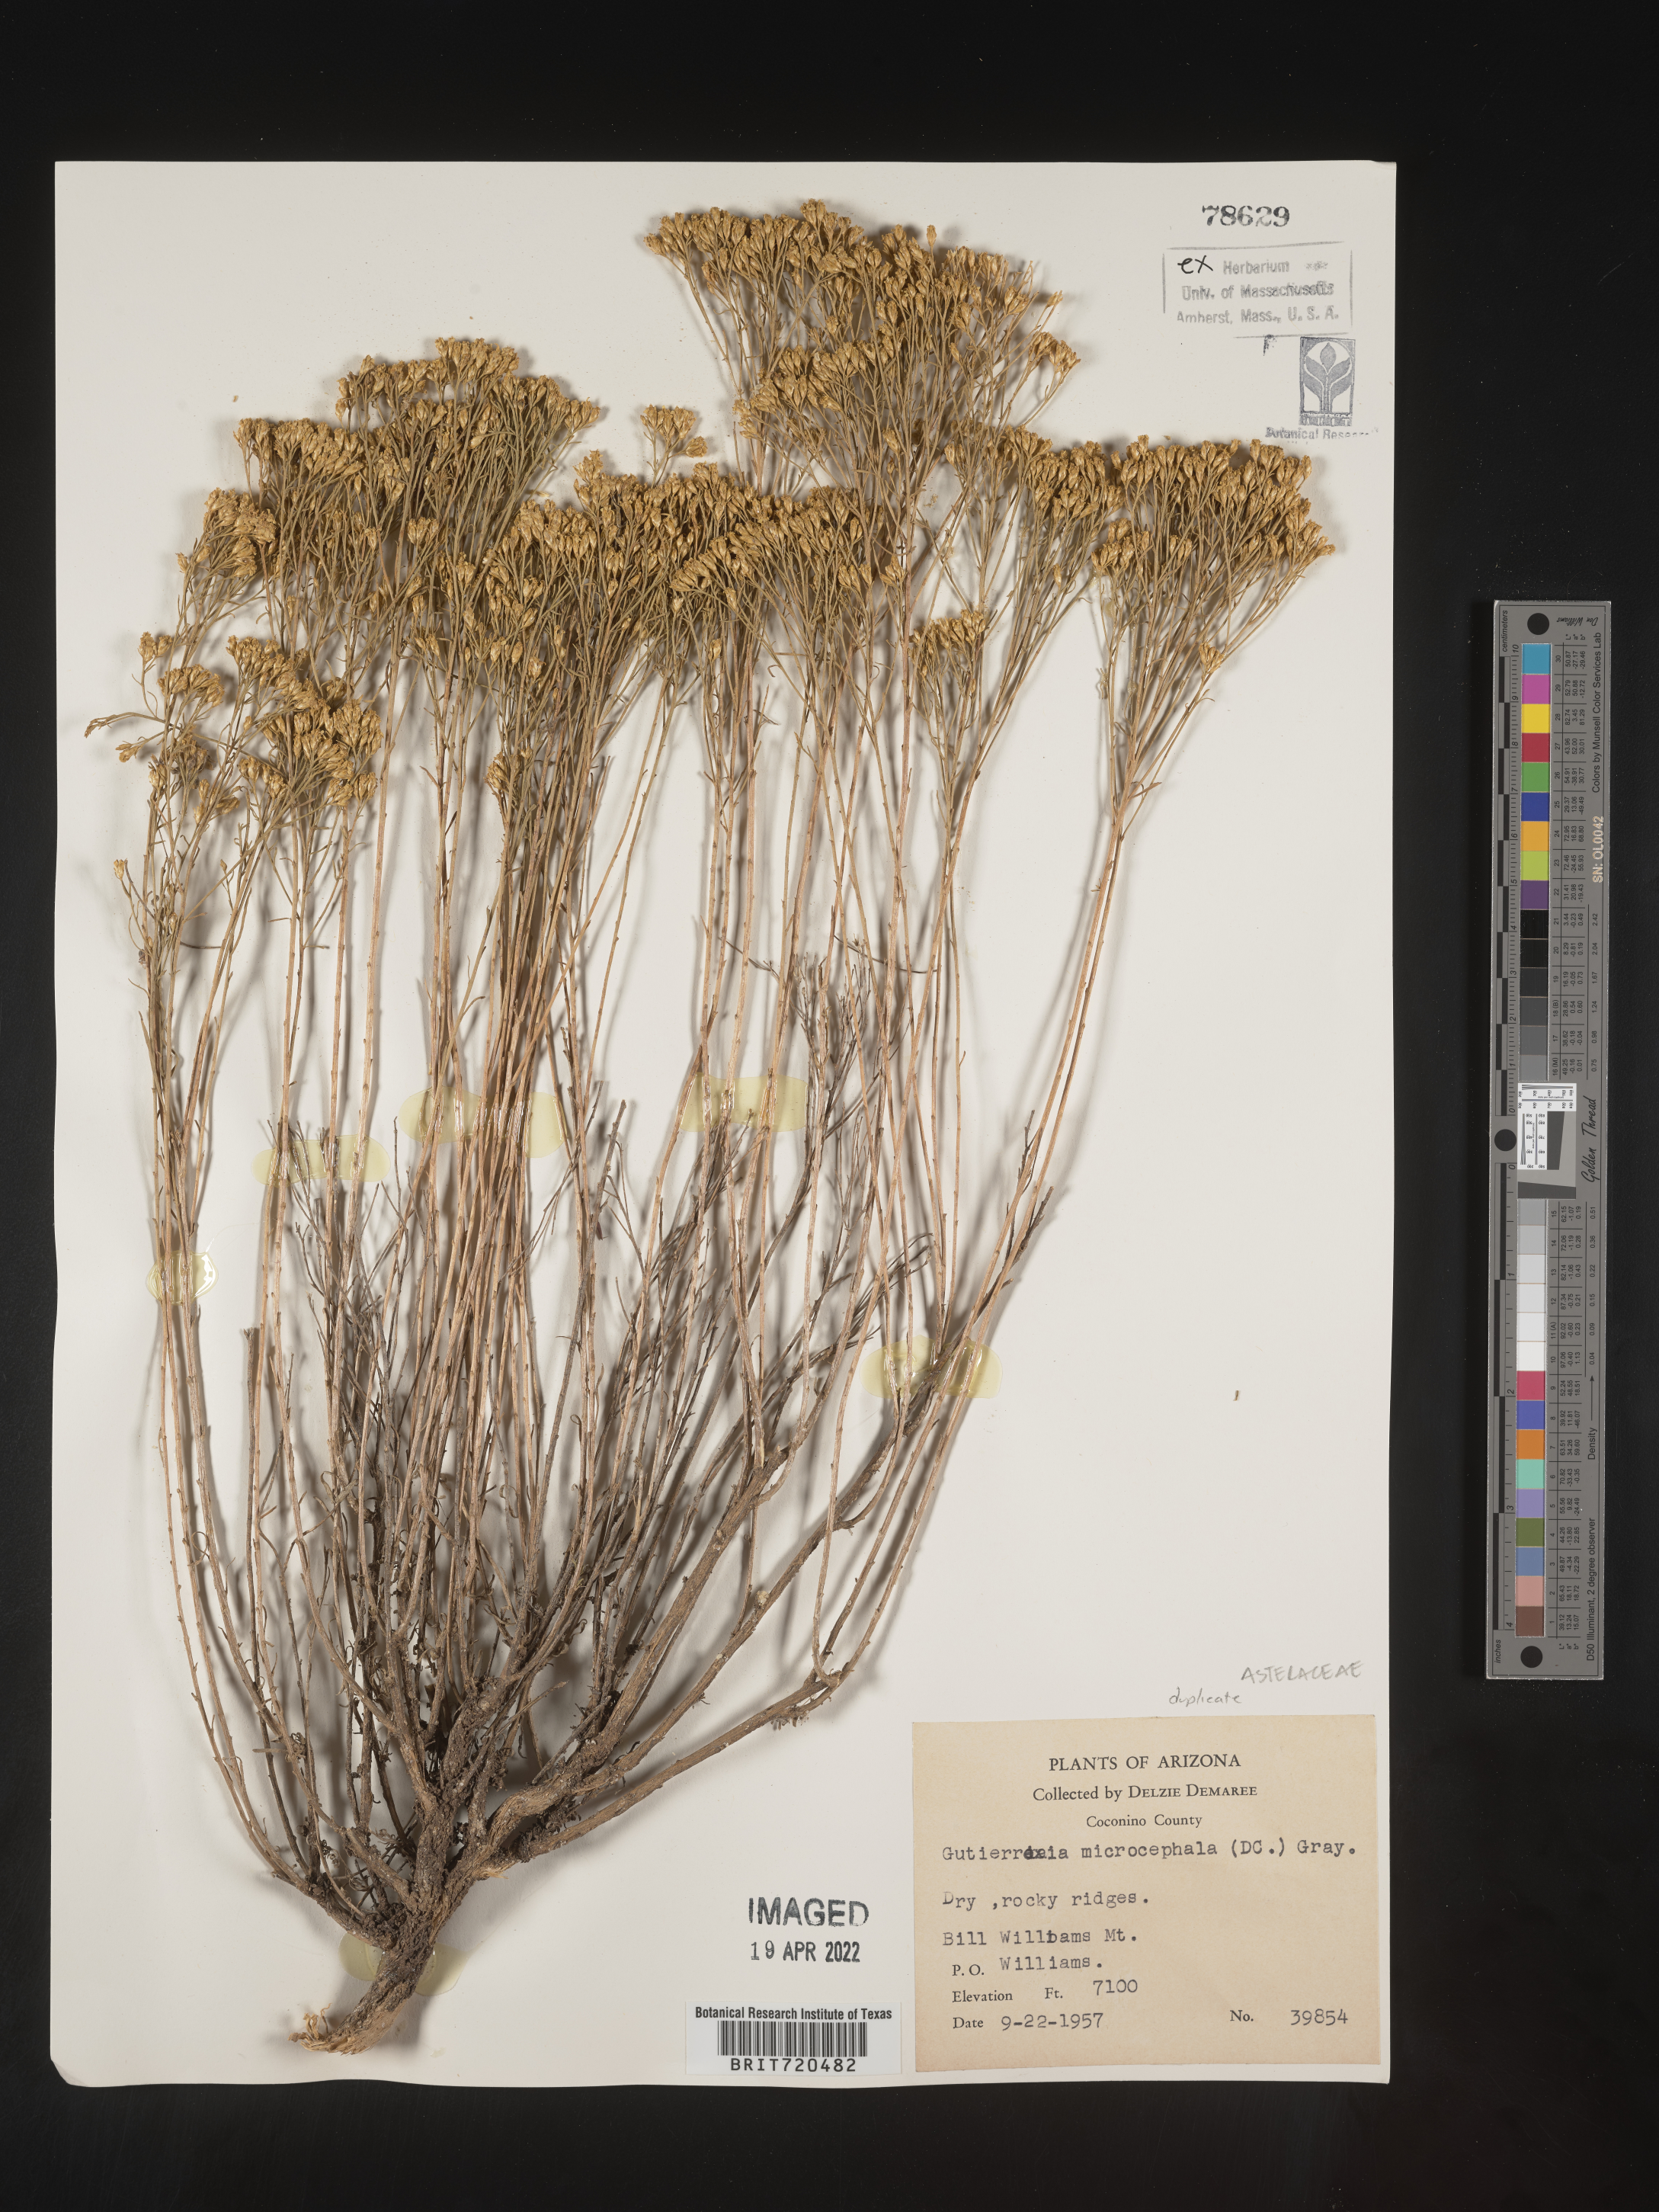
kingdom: Plantae
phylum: Tracheophyta
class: Magnoliopsida
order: Asterales
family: Asteraceae
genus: Gutierrezia
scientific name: Gutierrezia microcephala
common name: Thread snakeweed
